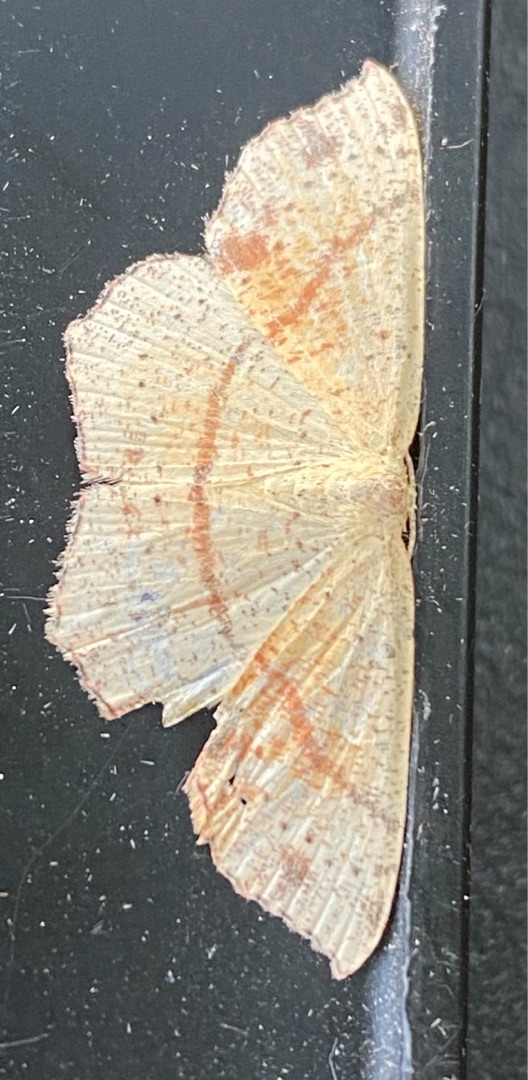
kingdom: Animalia
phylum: Arthropoda
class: Insecta
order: Lepidoptera
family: Geometridae
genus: Cyclophora
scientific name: Cyclophora punctaria
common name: Ege-bæltemåler
